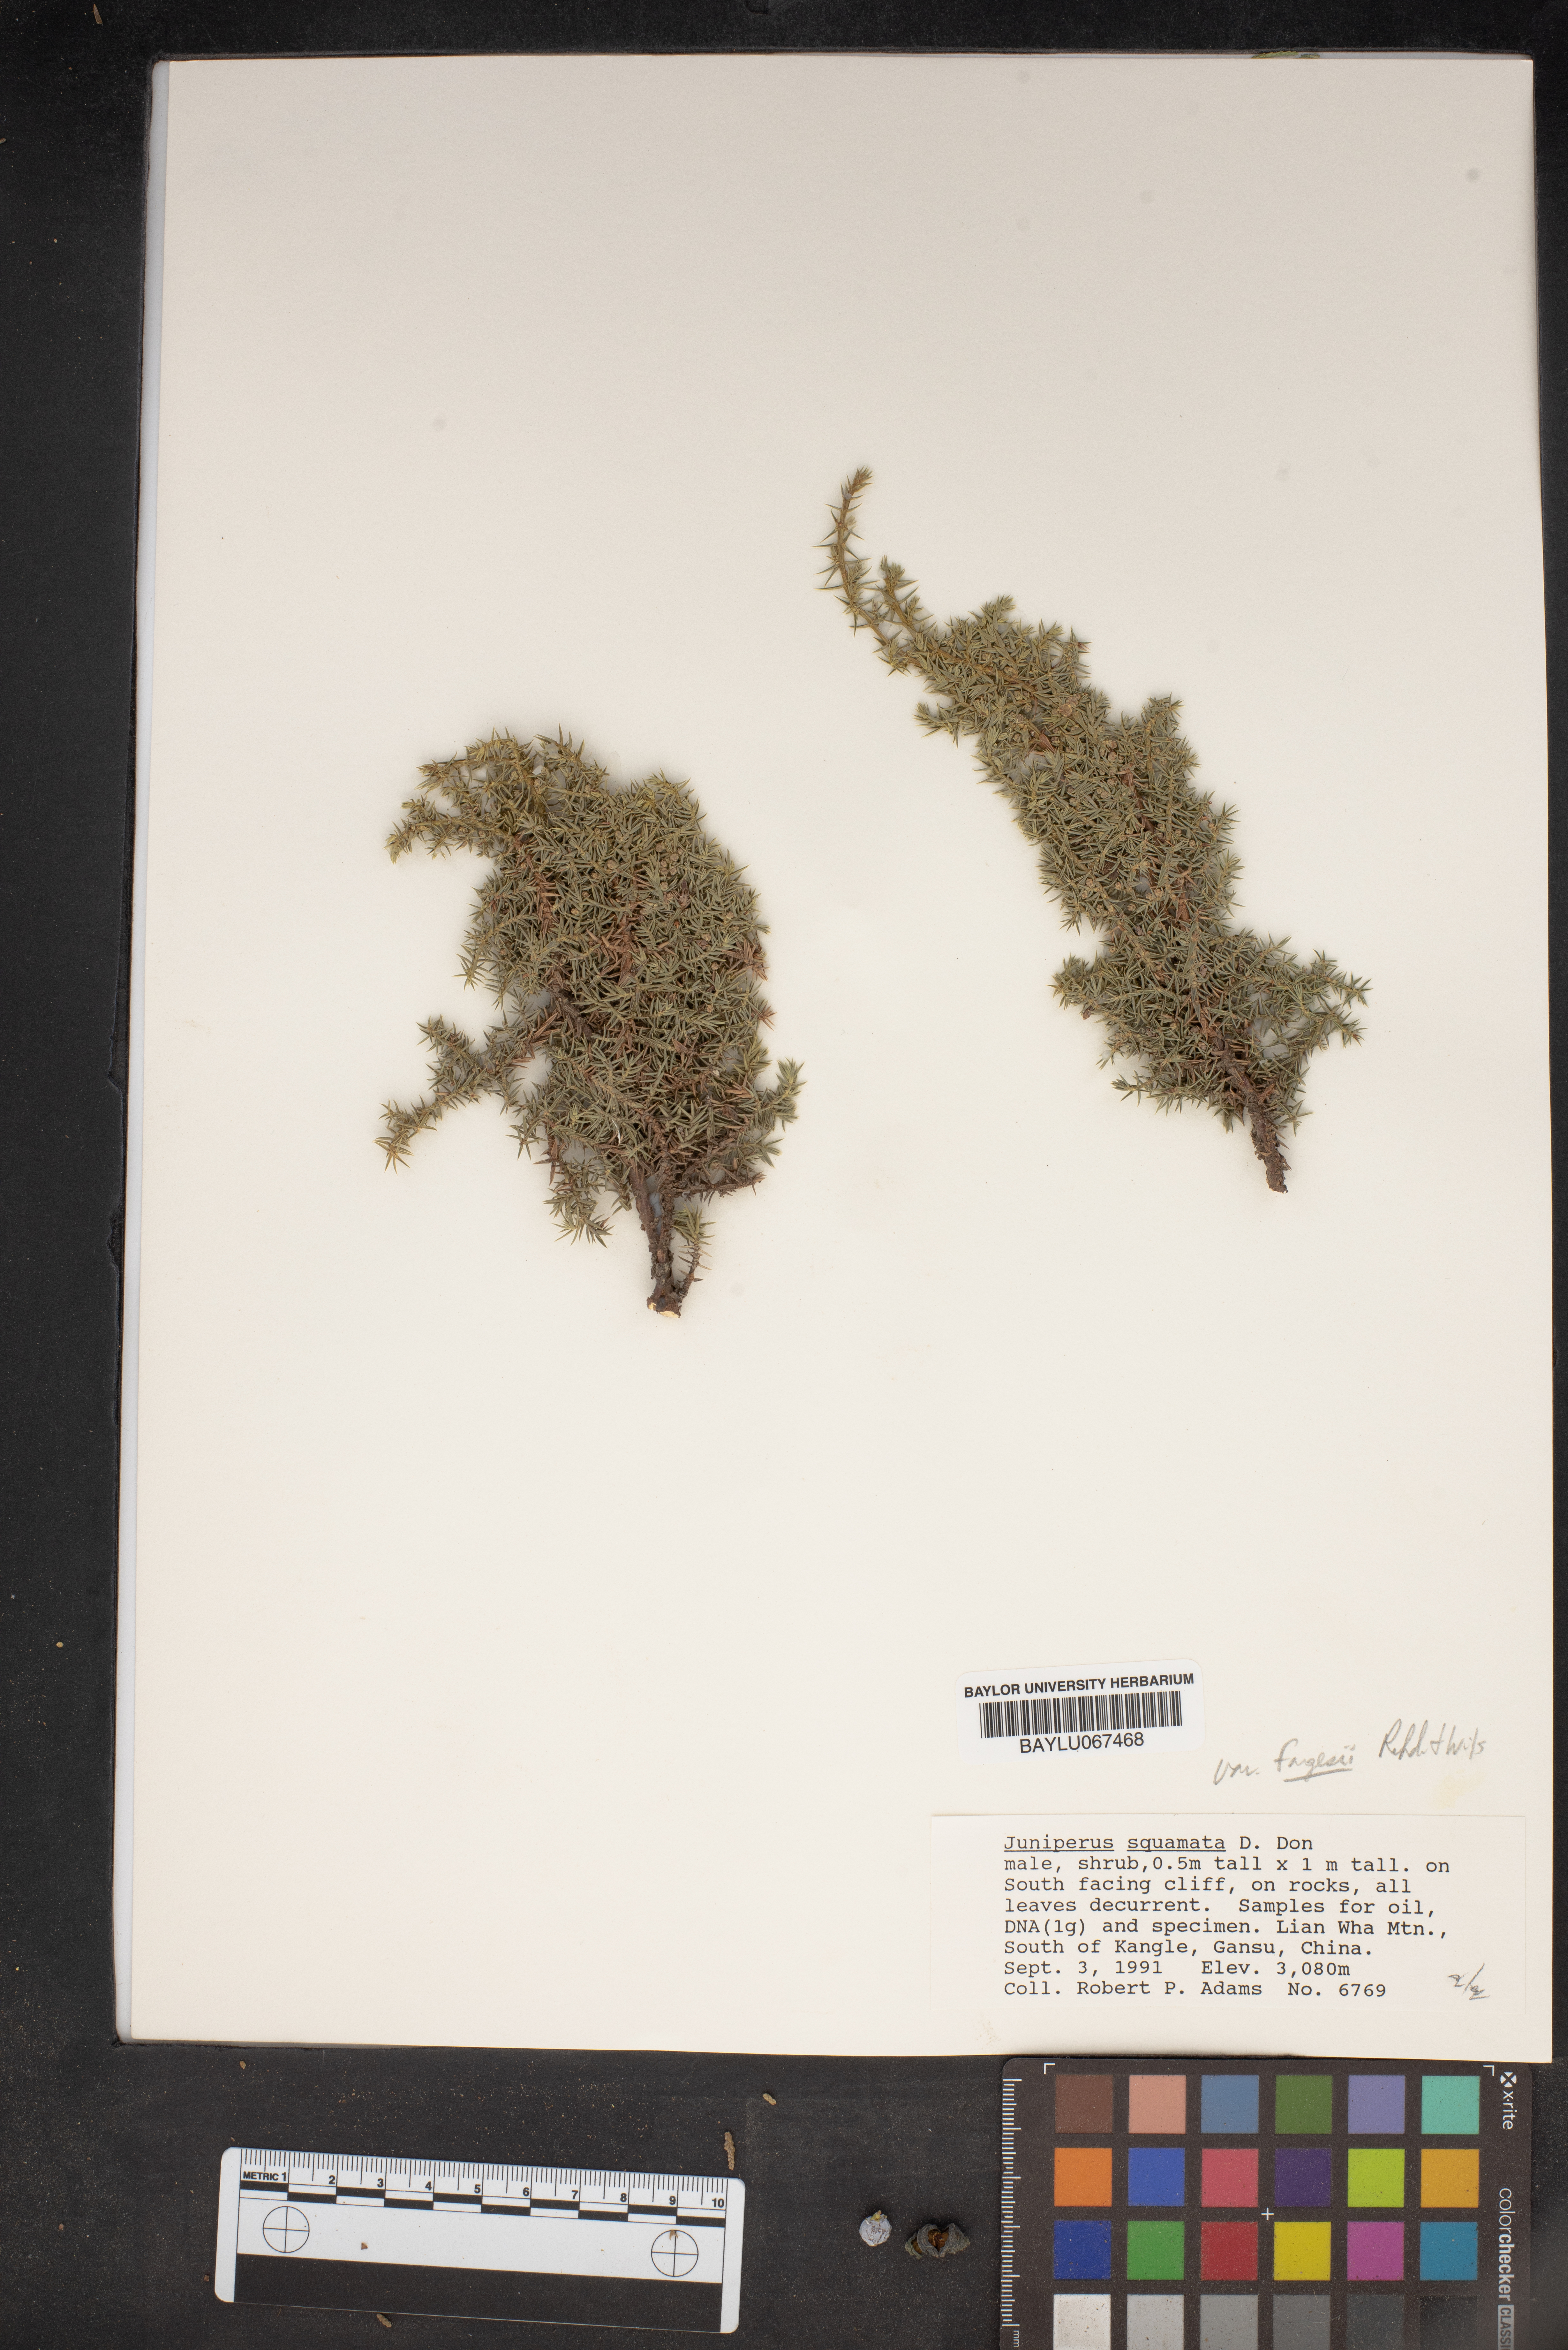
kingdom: Plantae
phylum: Tracheophyta
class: Pinopsida
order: Pinales
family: Cupressaceae
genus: Juniperus
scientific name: Juniperus squamata
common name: Flaky juniper
